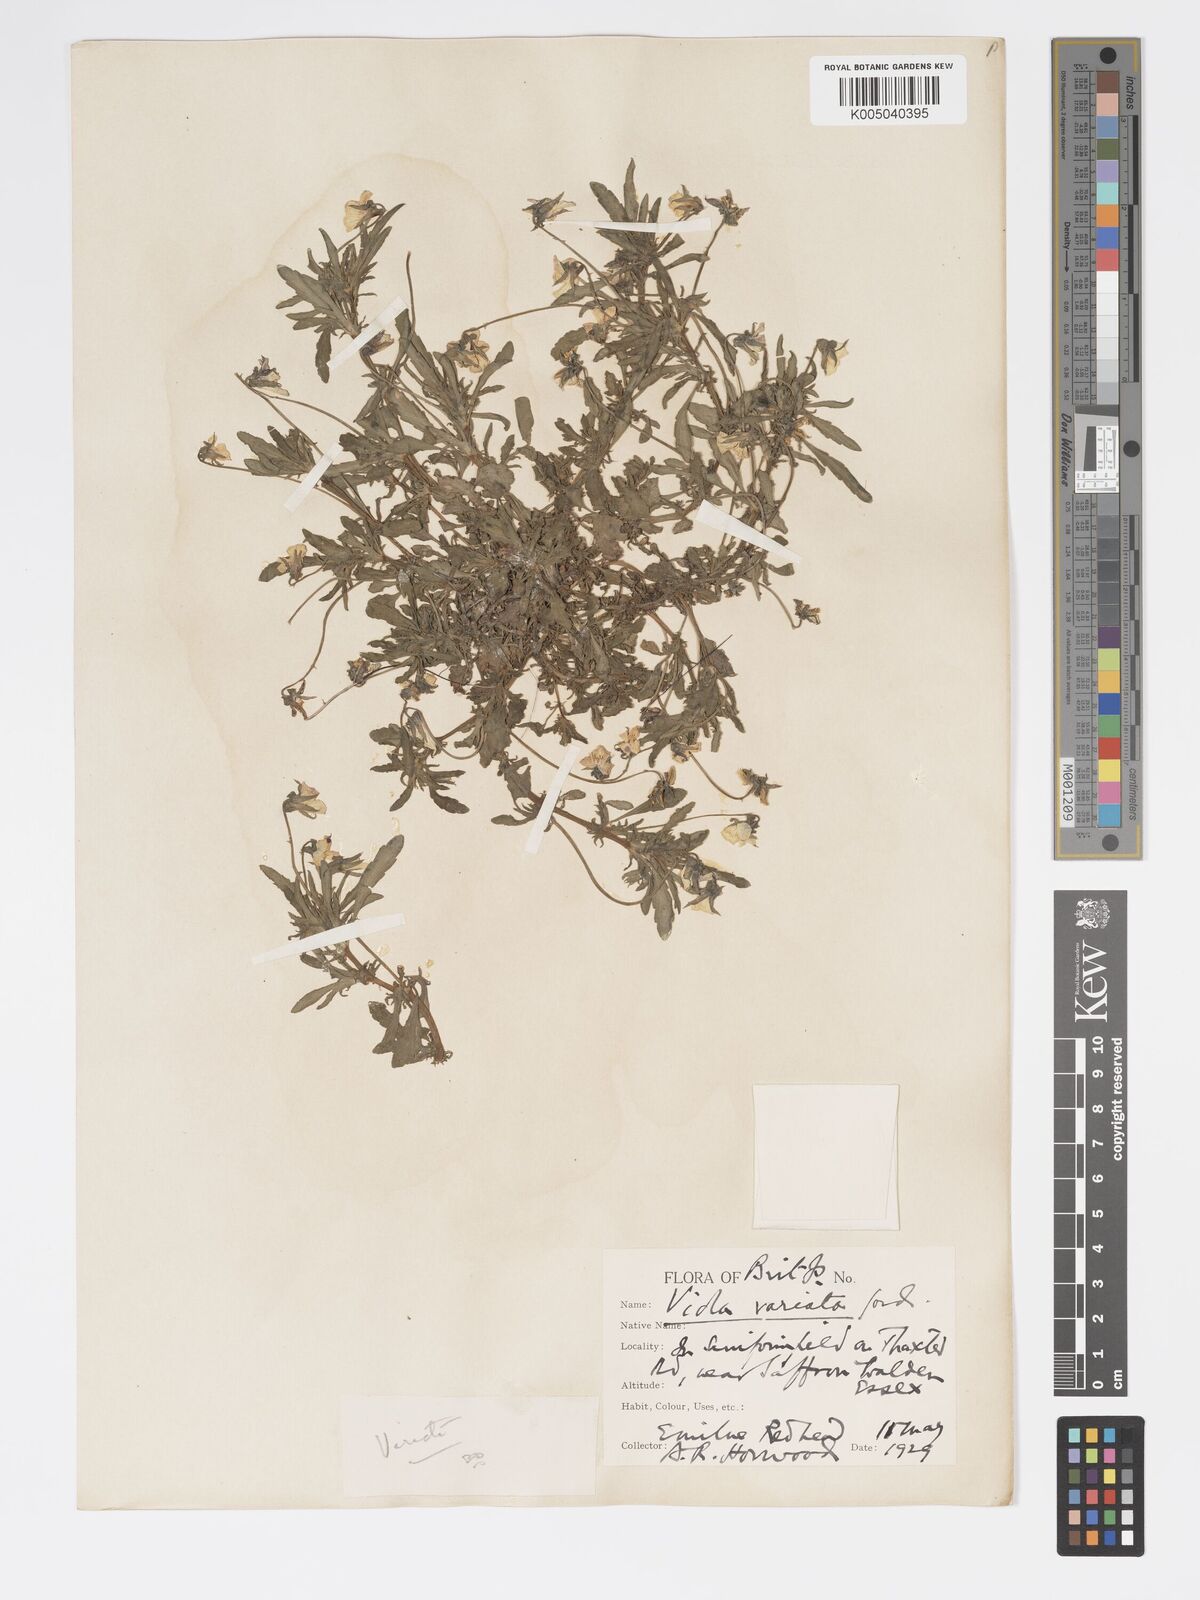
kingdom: Plantae
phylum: Tracheophyta
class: Magnoliopsida
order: Malpighiales
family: Violaceae
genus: Viola
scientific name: Viola arvensis
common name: Field pansy
